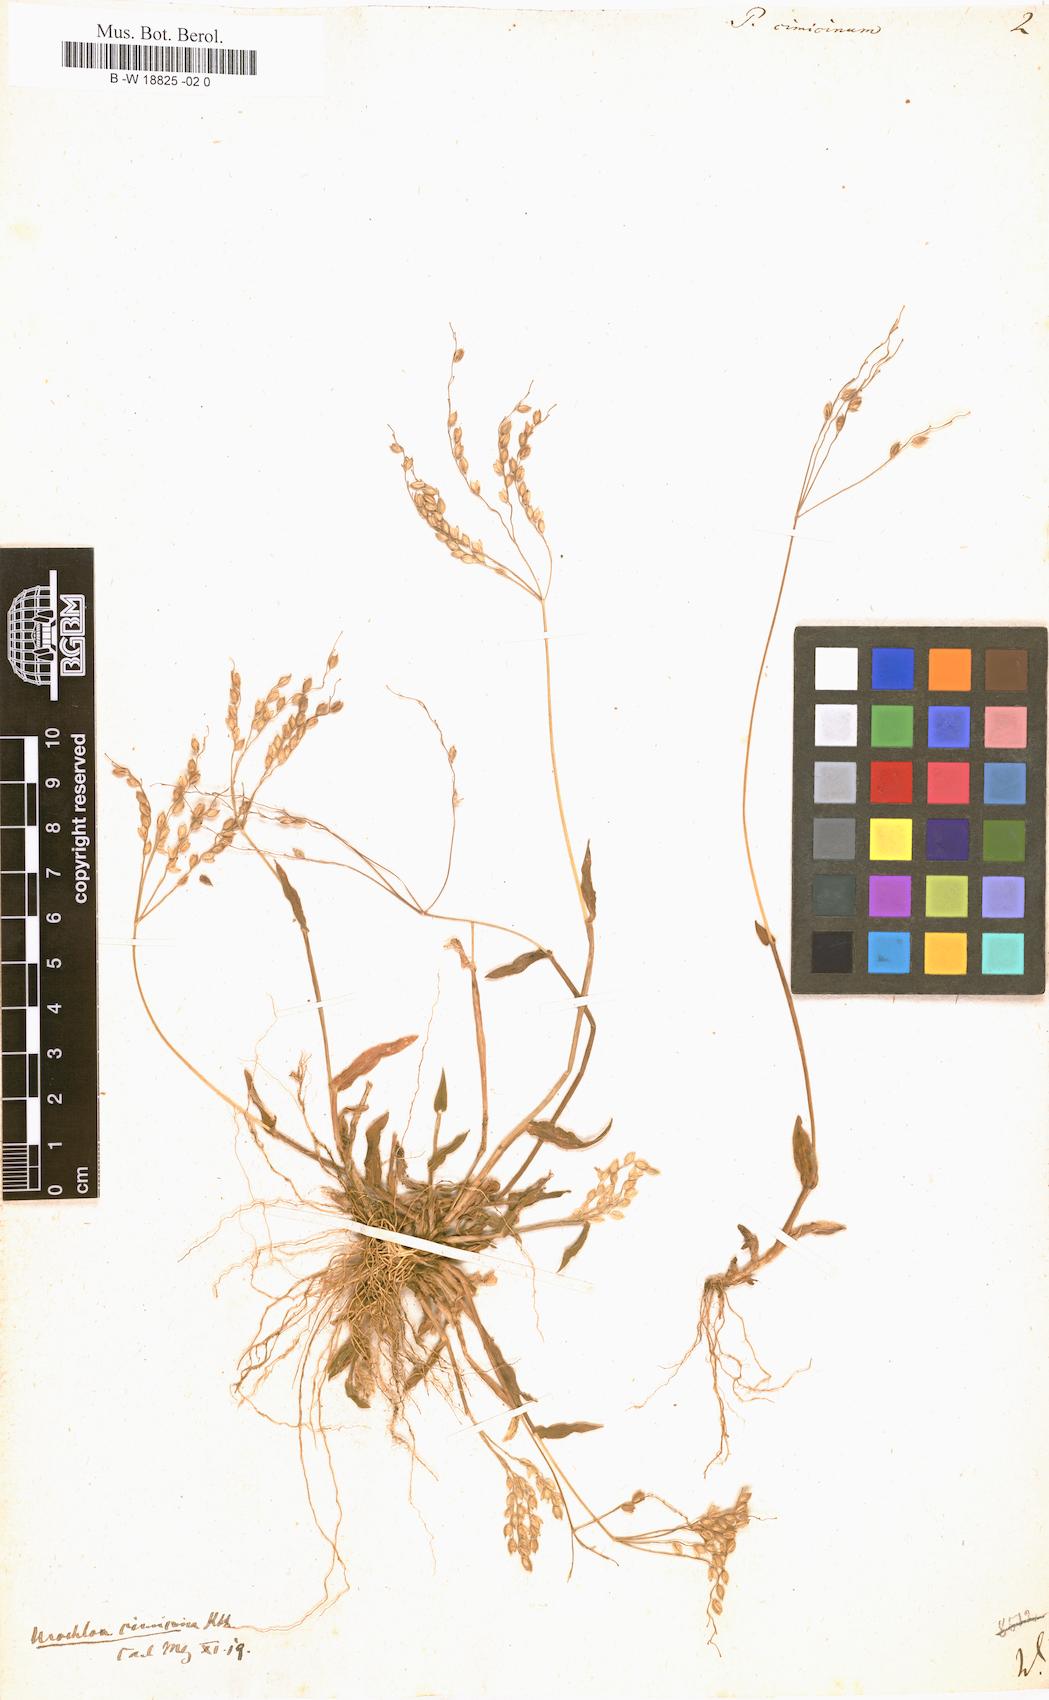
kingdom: Plantae
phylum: Tracheophyta
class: Liliopsida
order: Poales
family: Poaceae
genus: Alloteropsis
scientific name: Alloteropsis cimicina
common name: Summergrass
